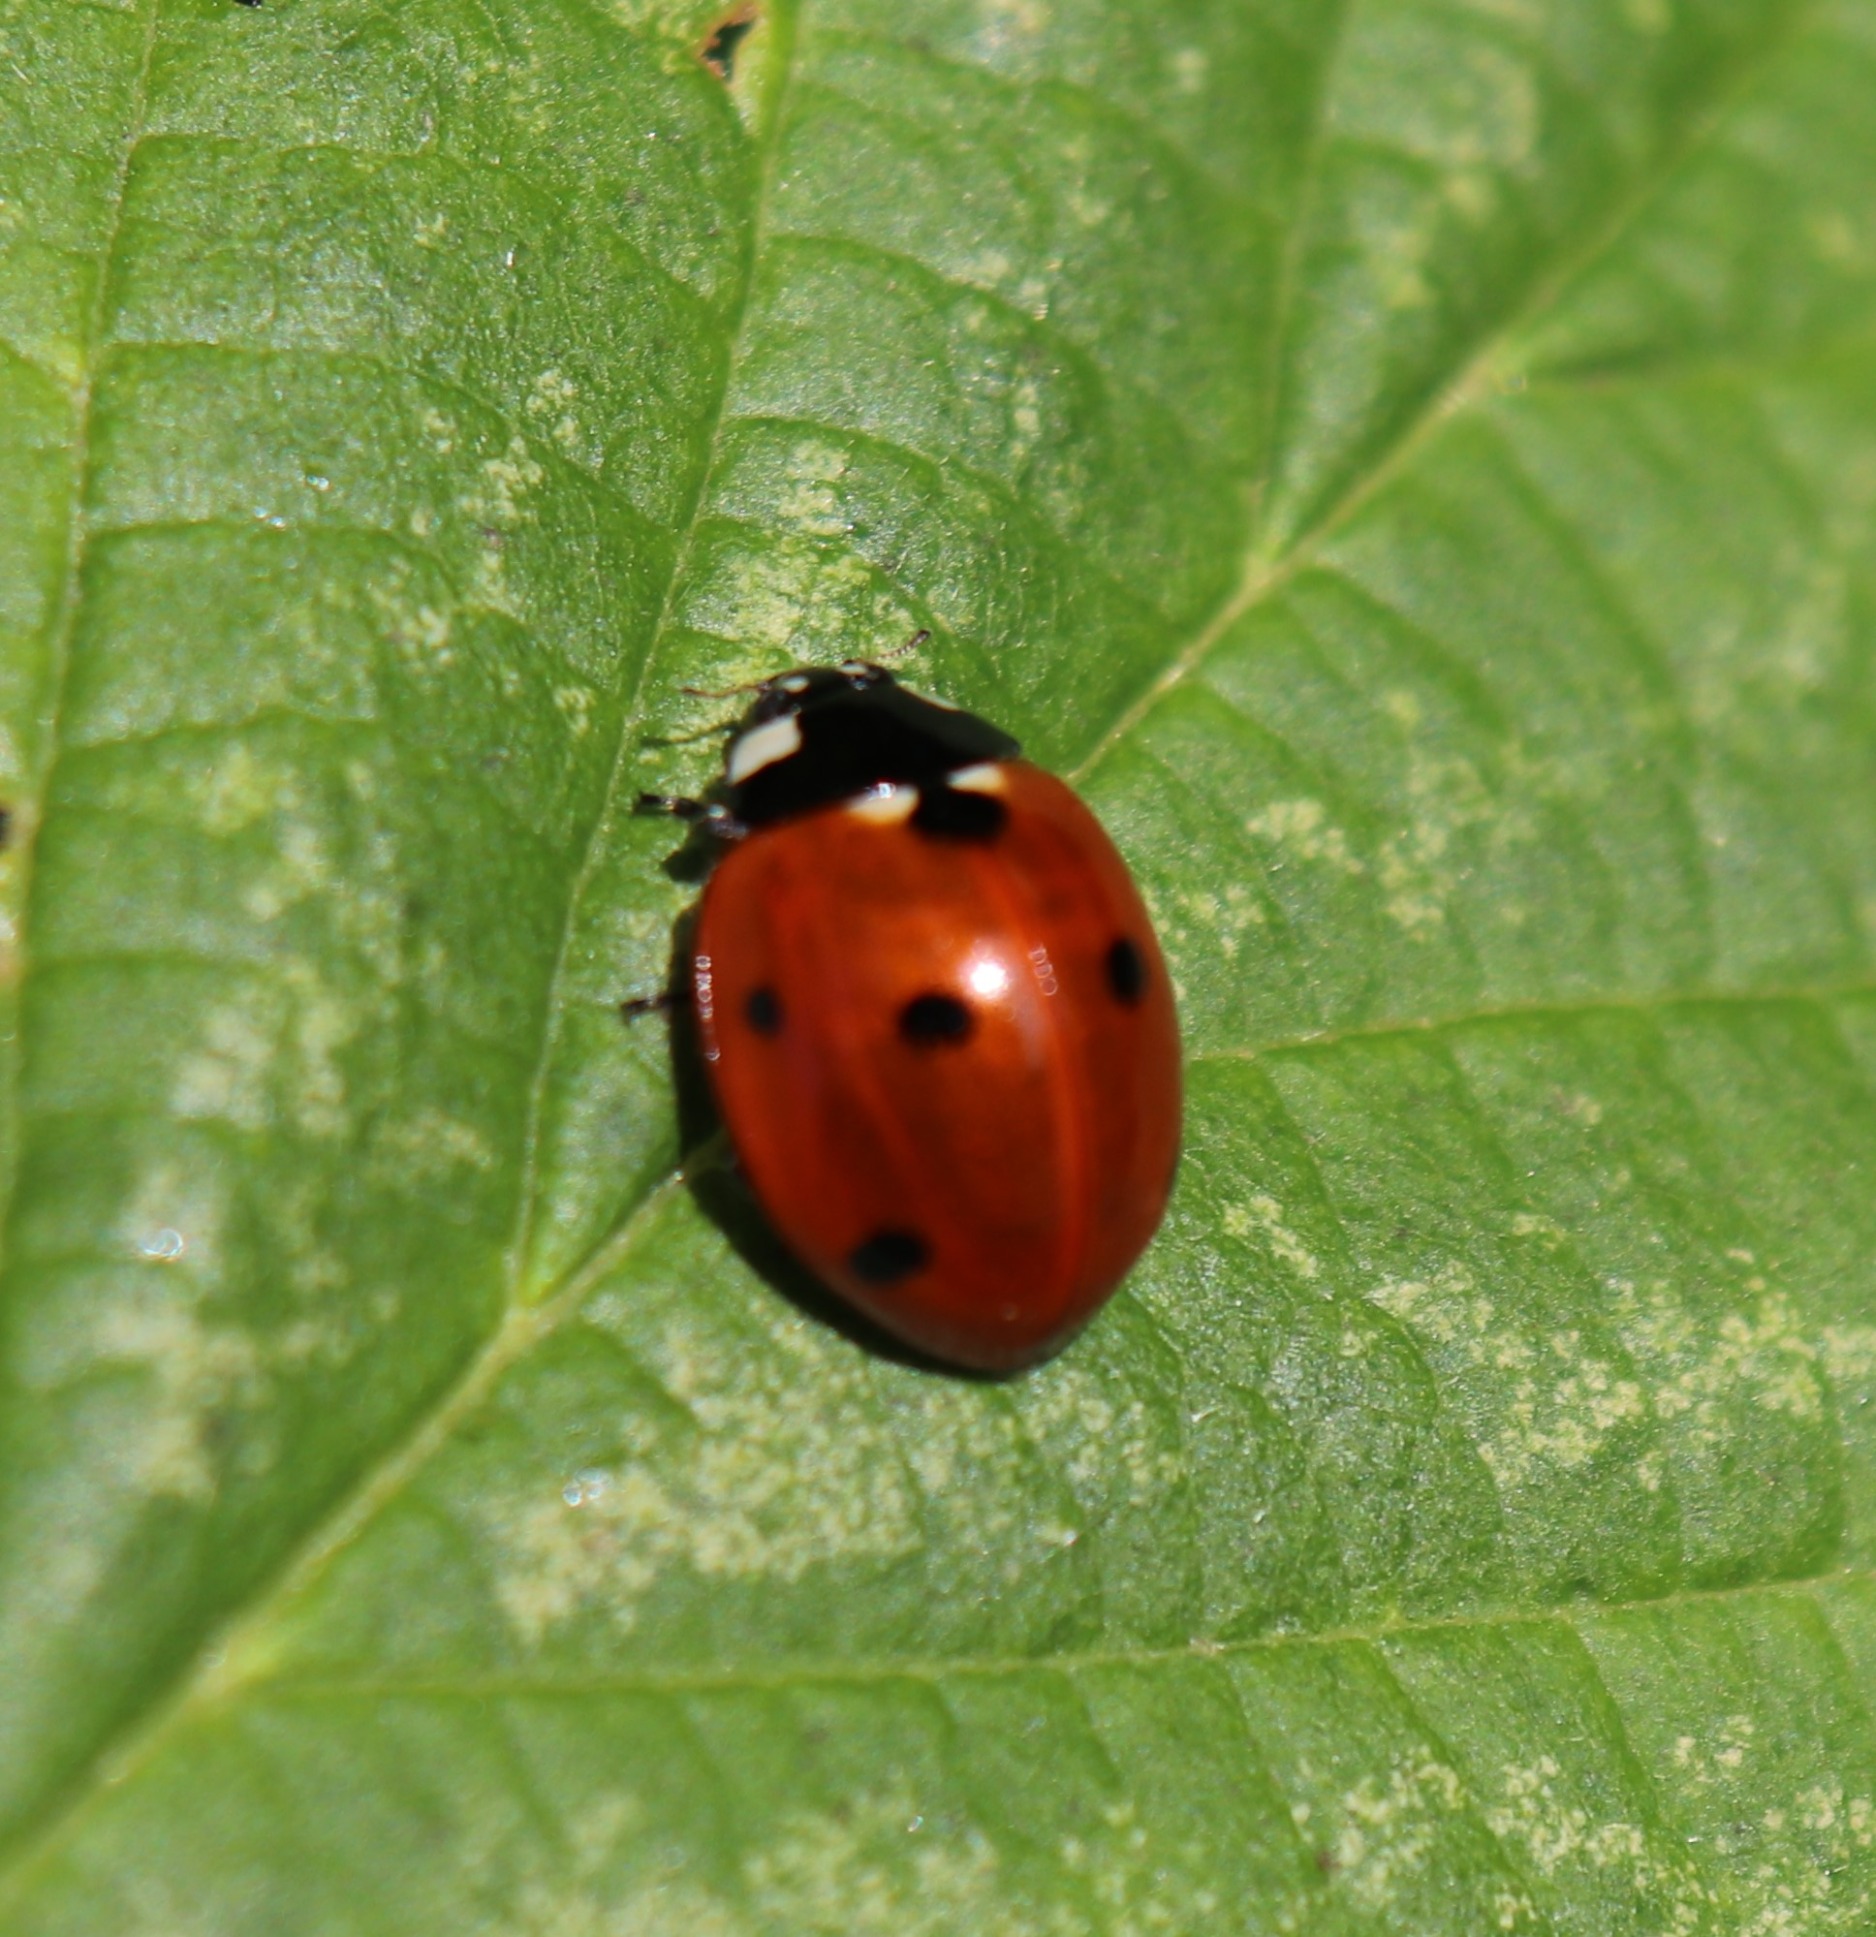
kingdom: Animalia
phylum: Arthropoda
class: Insecta
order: Coleoptera
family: Coccinellidae
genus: Coccinella
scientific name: Coccinella septempunctata
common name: Syvplettet mariehøne
